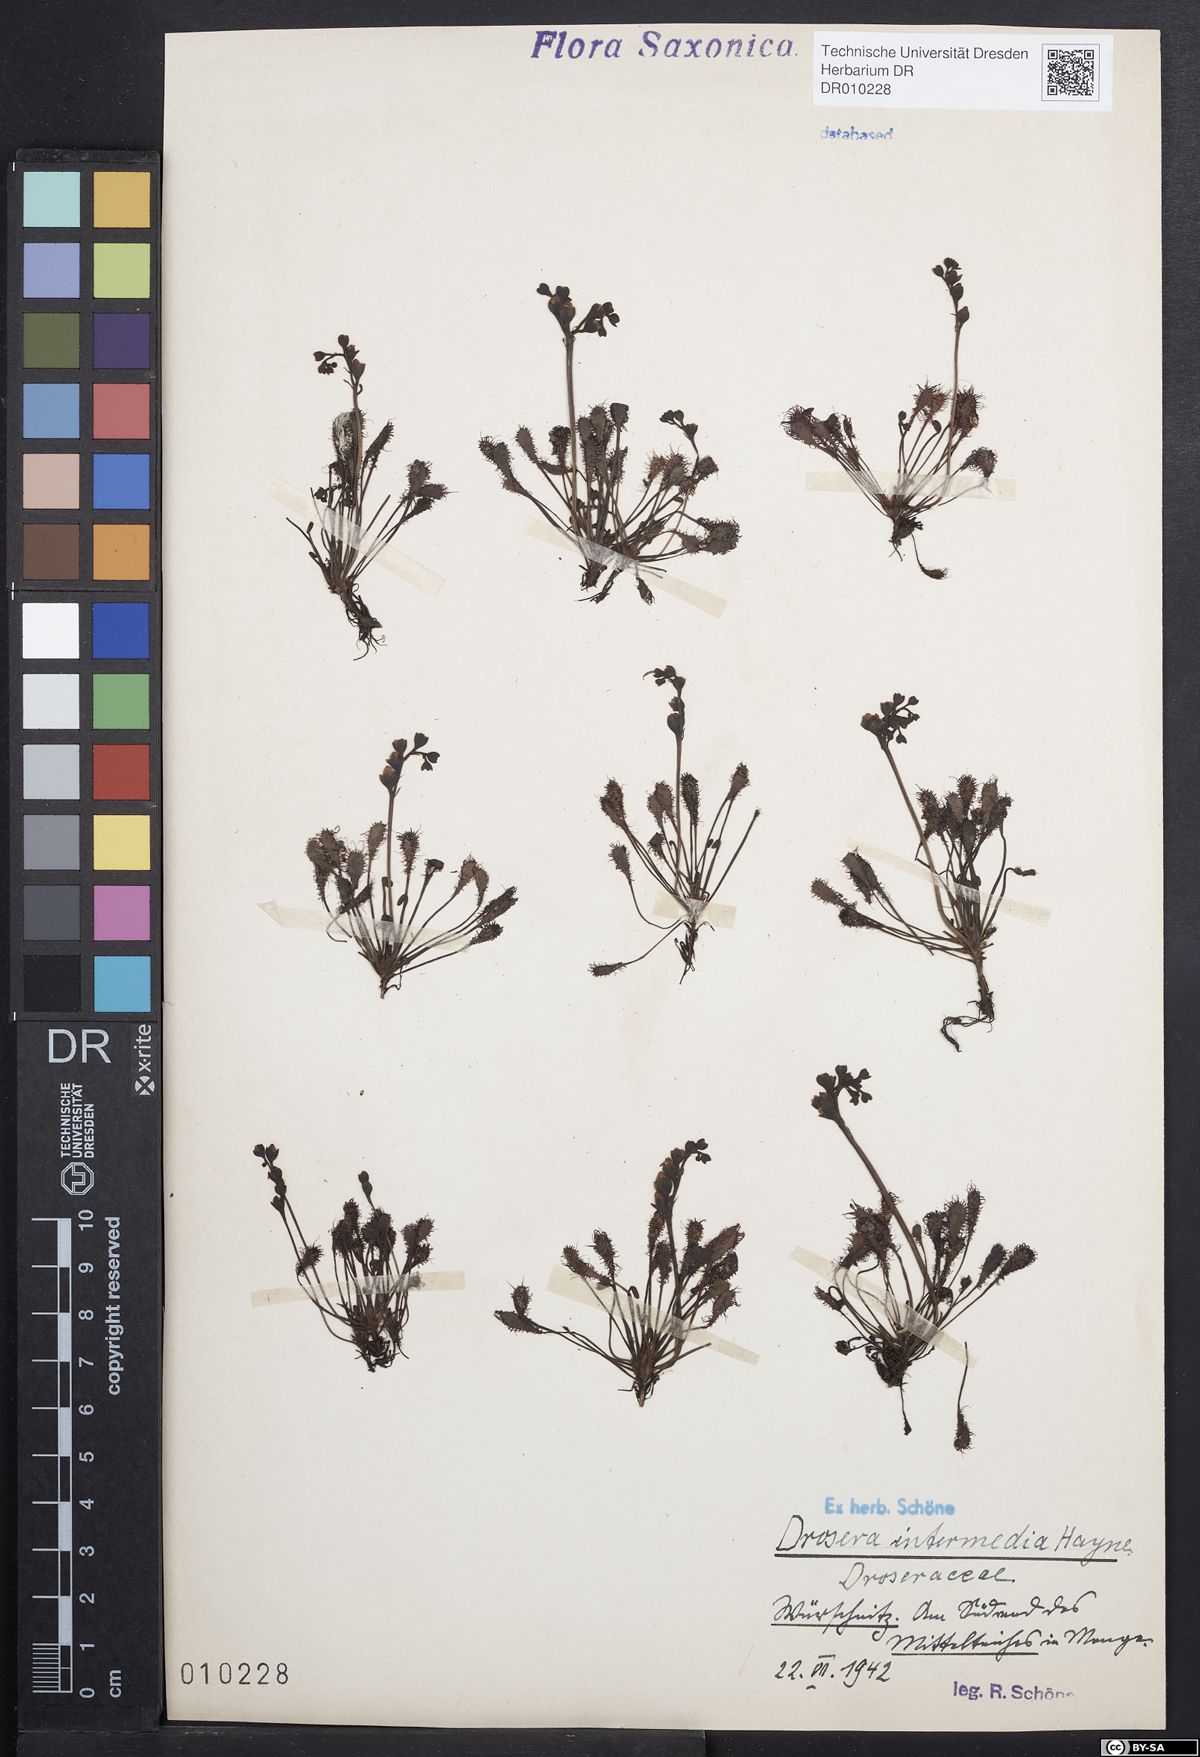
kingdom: Plantae
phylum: Tracheophyta
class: Magnoliopsida
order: Caryophyllales
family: Droseraceae
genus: Drosera
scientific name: Drosera intermedia
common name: Oblong-leaved sundew
